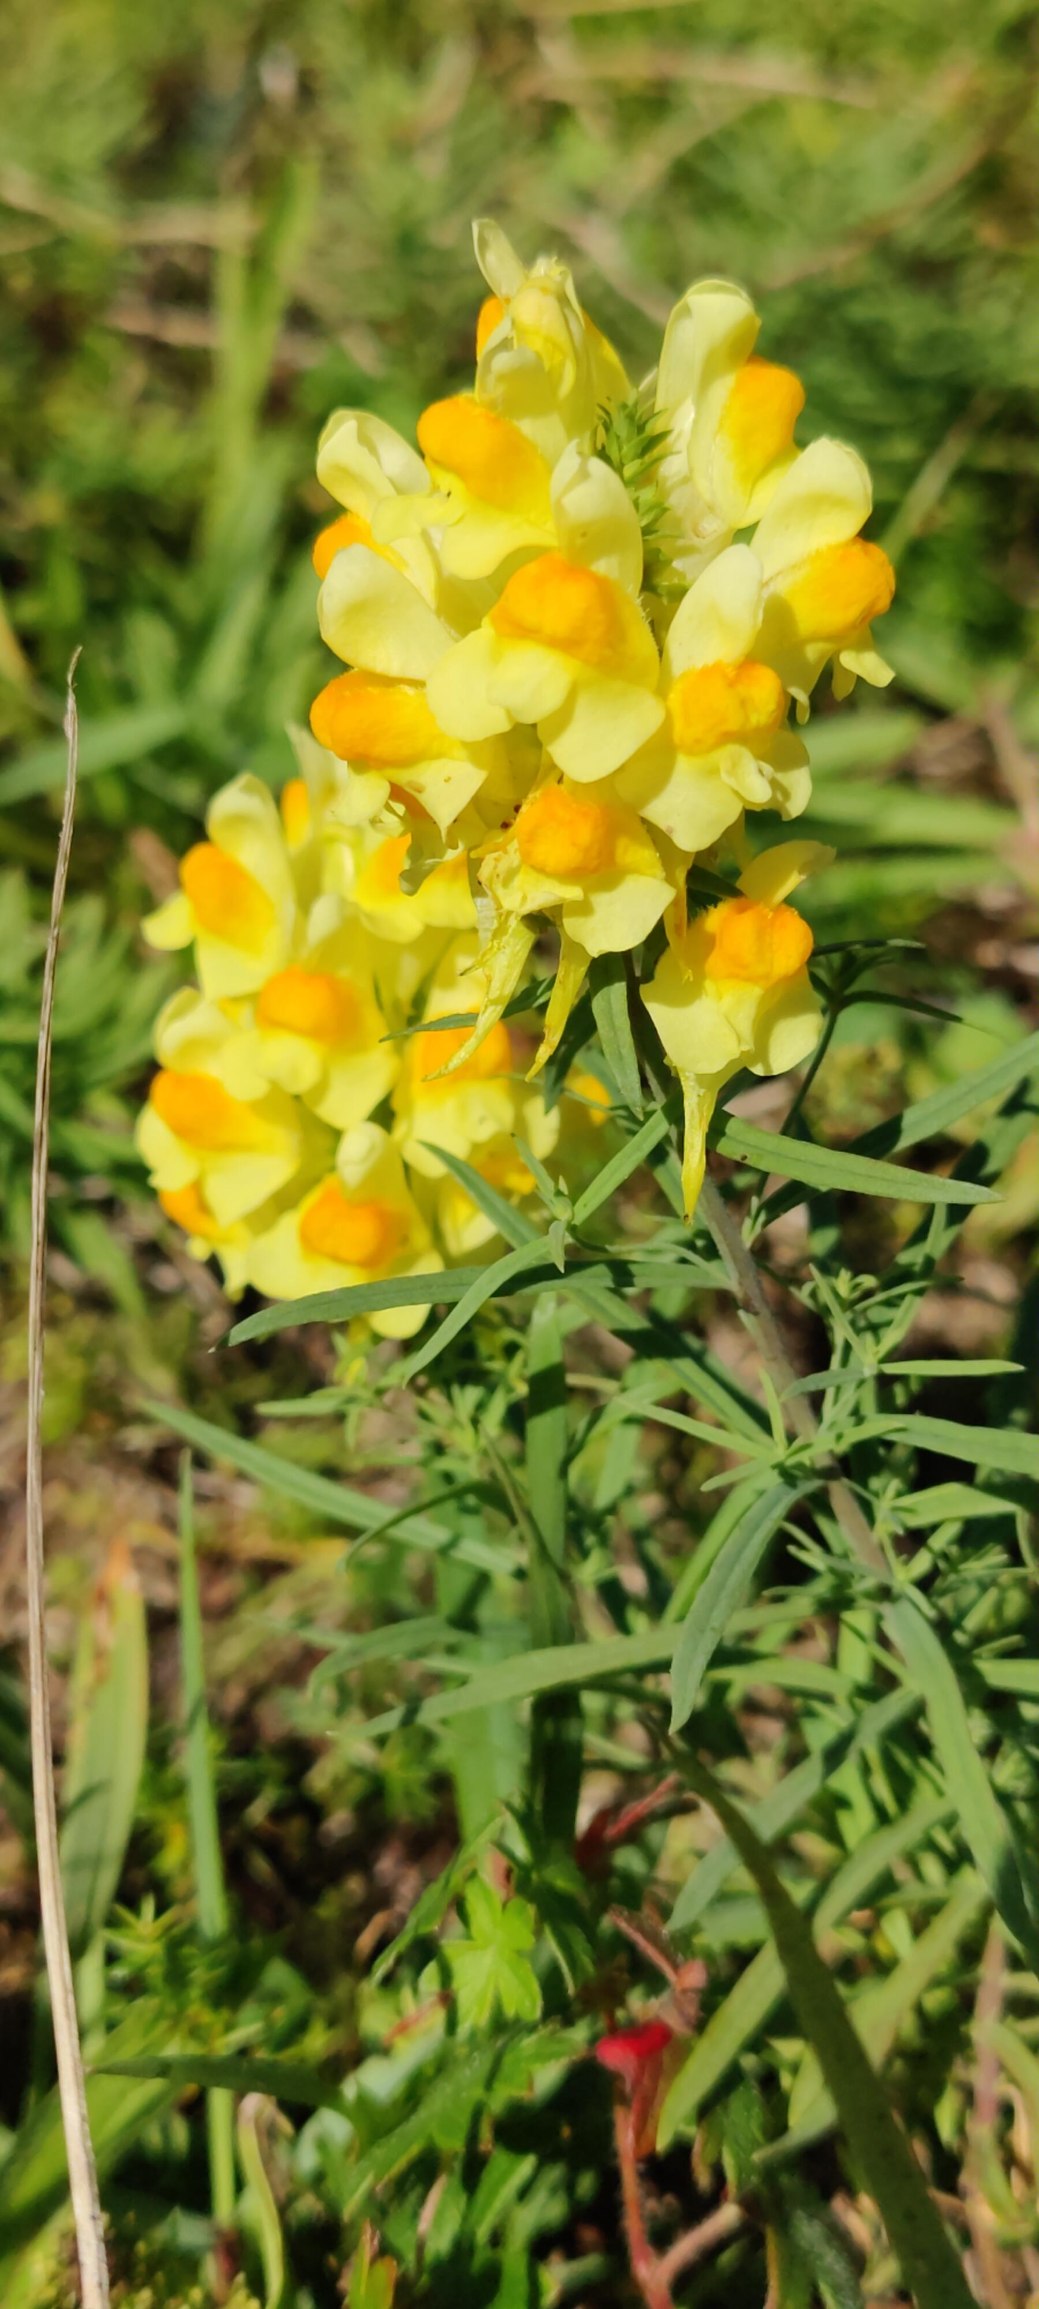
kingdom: Plantae
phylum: Tracheophyta
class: Magnoliopsida
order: Lamiales
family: Plantaginaceae
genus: Linaria
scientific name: Linaria vulgaris
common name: Almindelig torskemund
